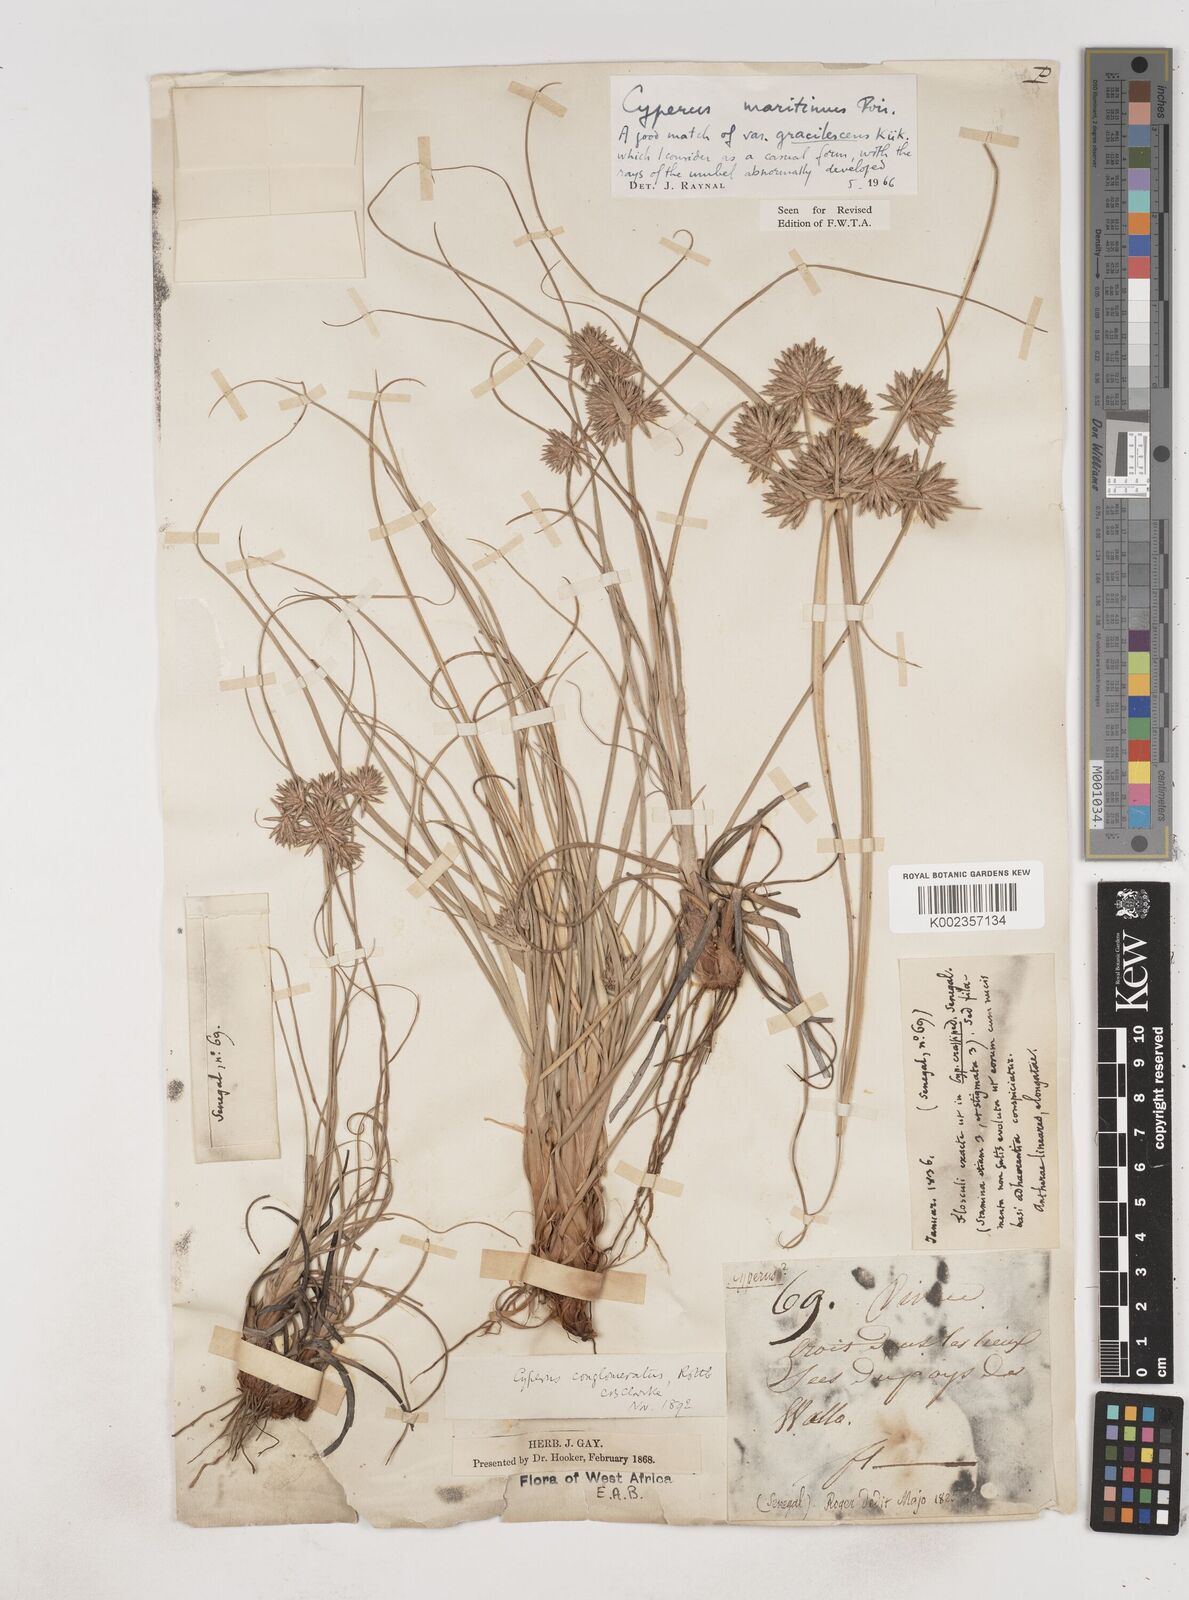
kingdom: Plantae
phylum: Tracheophyta
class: Liliopsida
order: Poales
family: Cyperaceae
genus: Cyperus
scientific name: Cyperus crassipes
